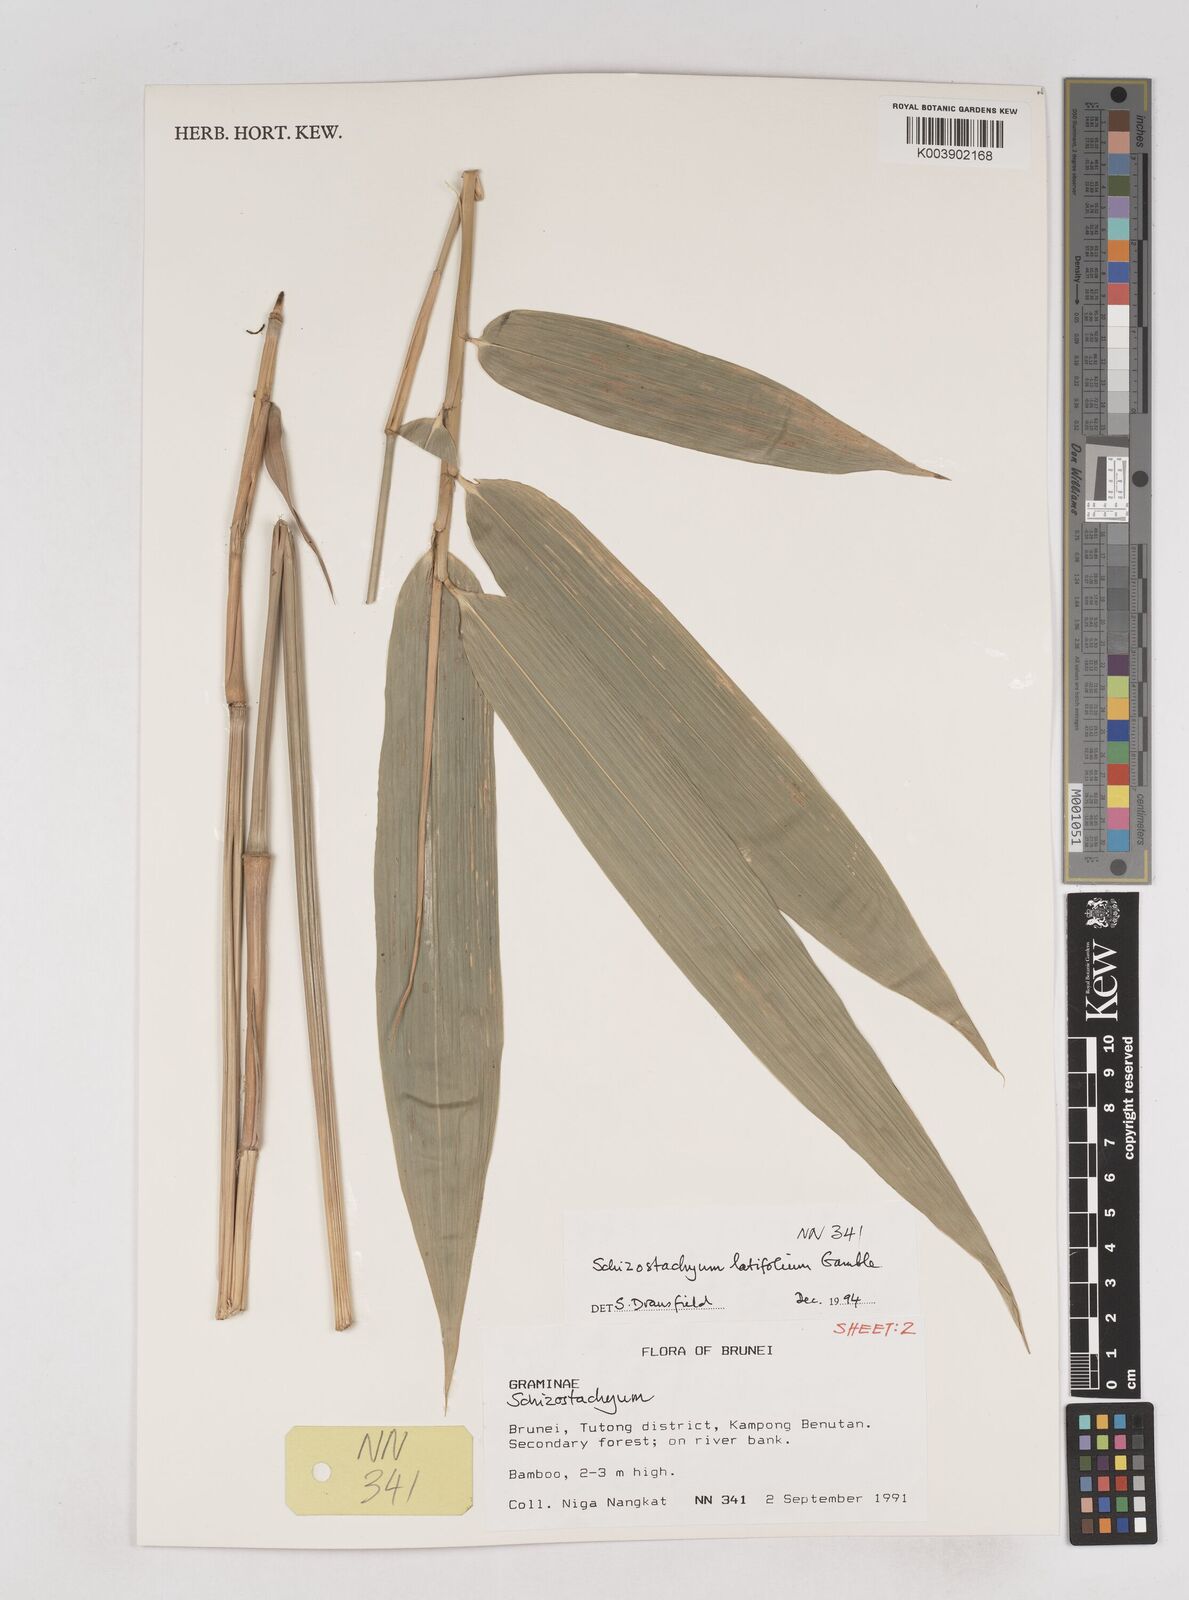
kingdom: Plantae
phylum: Tracheophyta
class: Liliopsida
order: Poales
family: Poaceae
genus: Schizostachyum
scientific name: Schizostachyum latifolium
